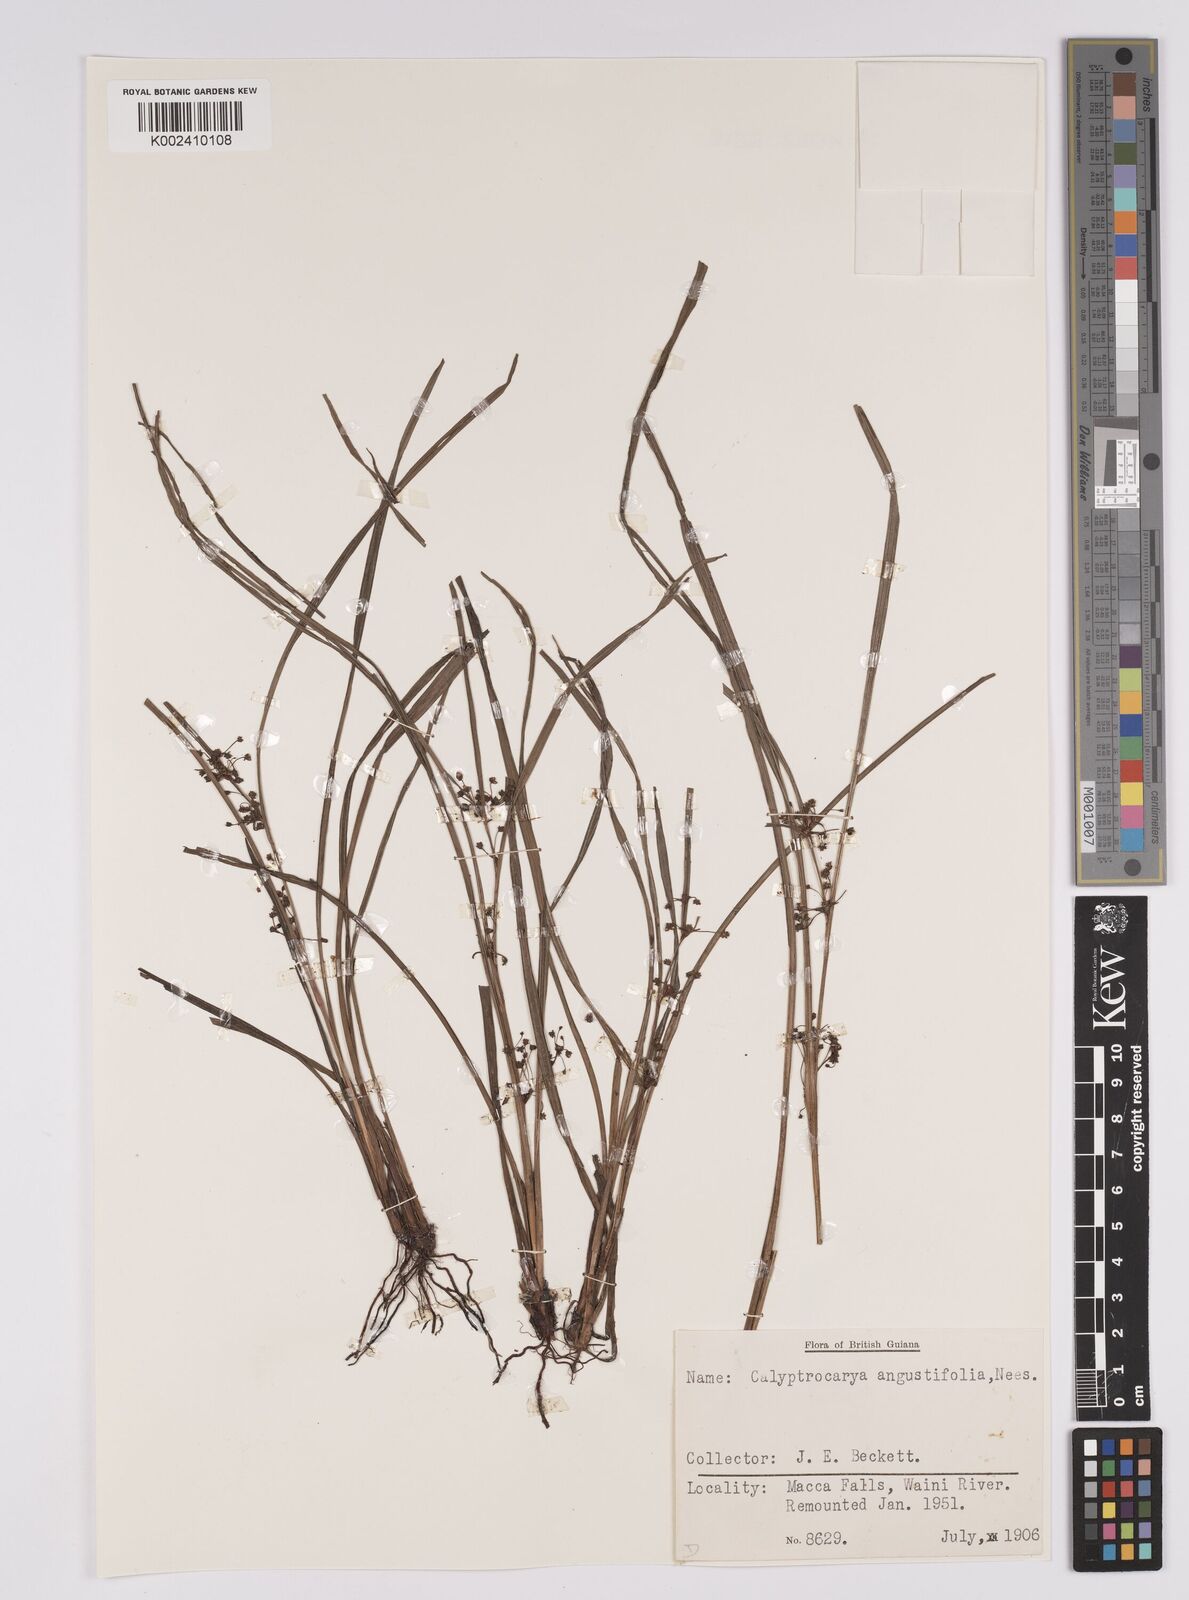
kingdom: Plantae
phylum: Tracheophyta
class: Liliopsida
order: Poales
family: Cyperaceae
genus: Calyptrocarya
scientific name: Calyptrocarya glomerulata
